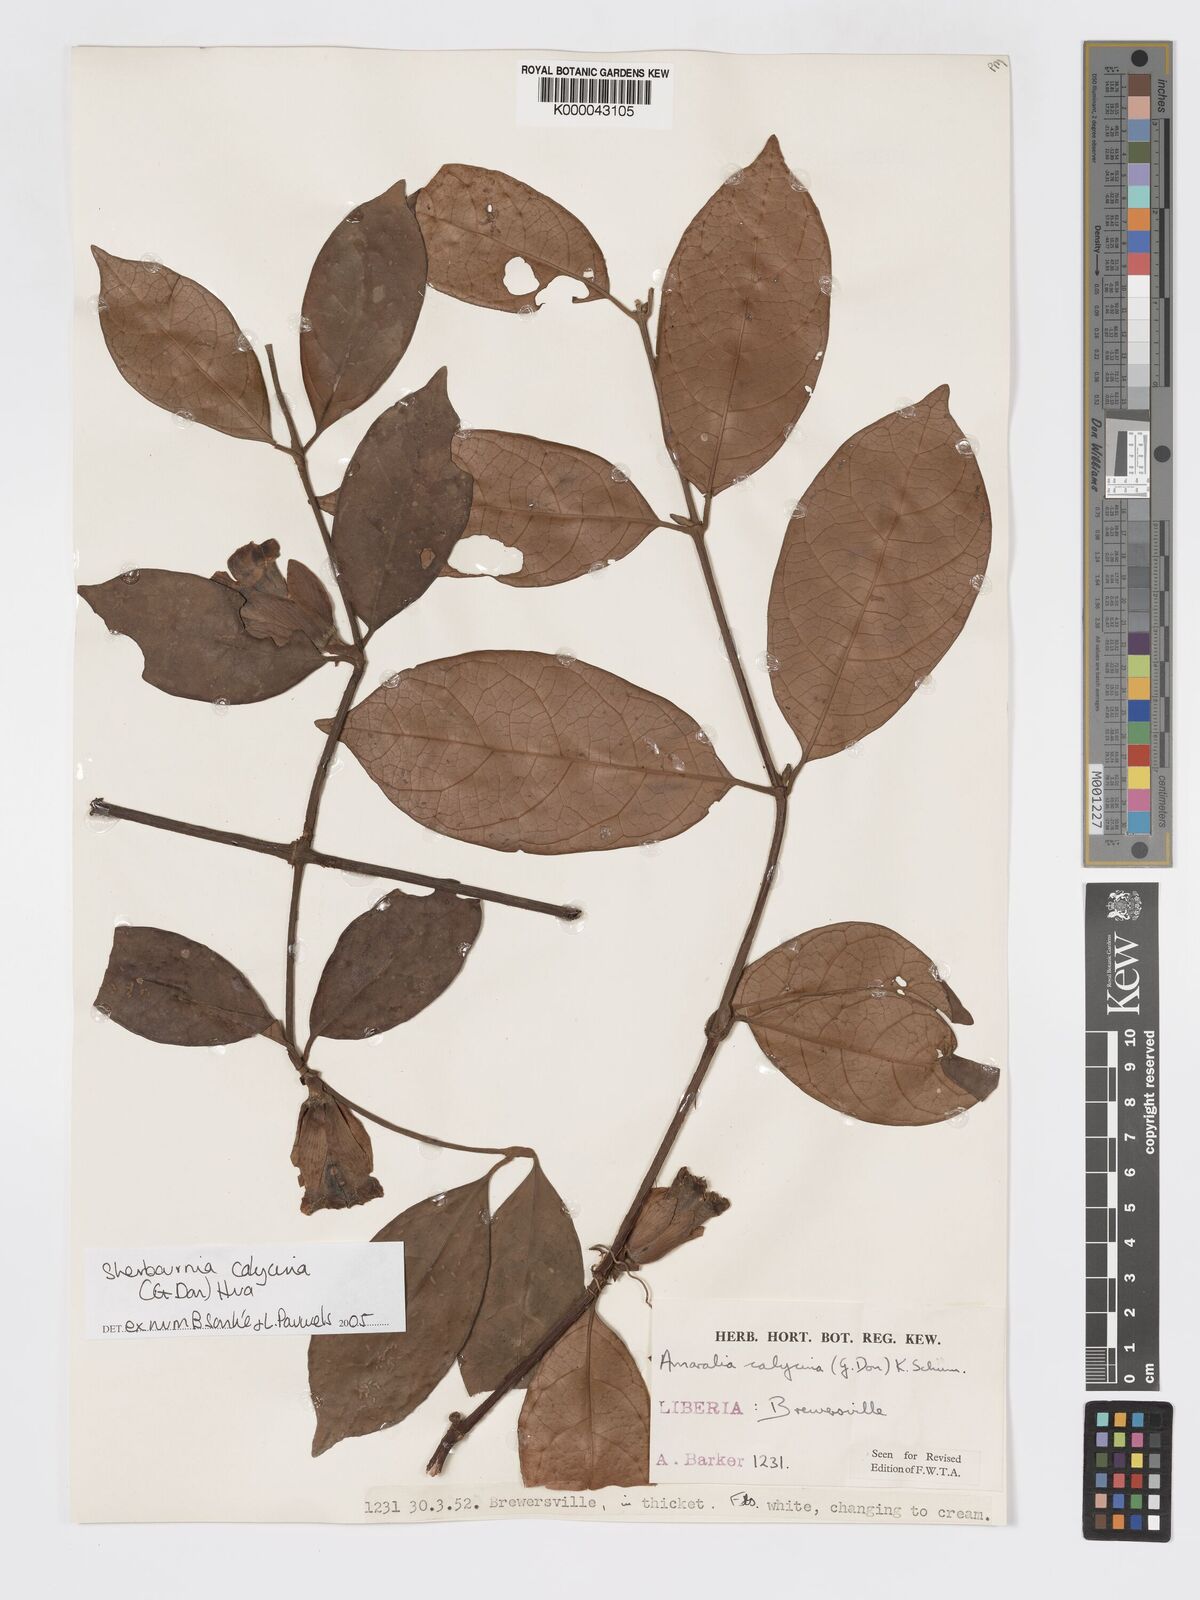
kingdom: Plantae
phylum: Tracheophyta
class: Magnoliopsida
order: Gentianales
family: Rubiaceae
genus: Sherbournia
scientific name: Sherbournia calycina
